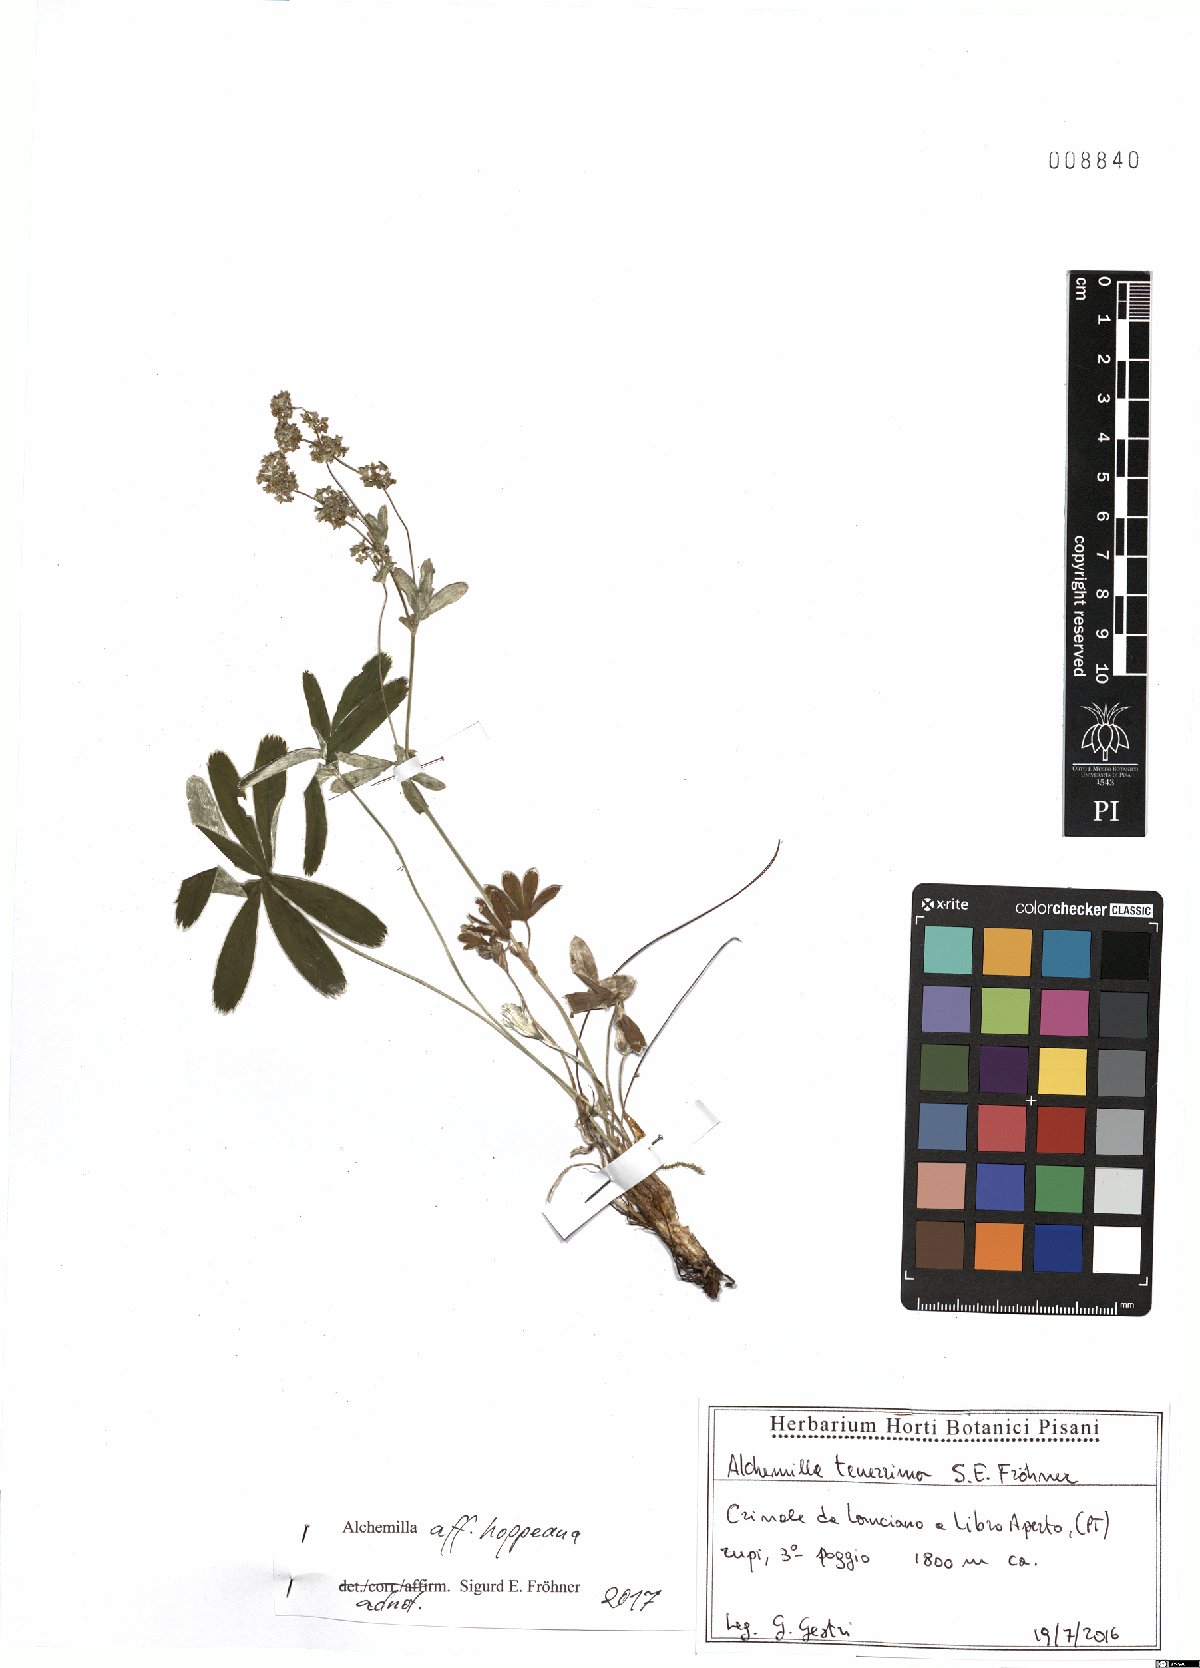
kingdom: Plantae
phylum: Tracheophyta
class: Magnoliopsida
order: Rosales
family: Rosaceae
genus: Alchemilla
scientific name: Alchemilla hoppeana
